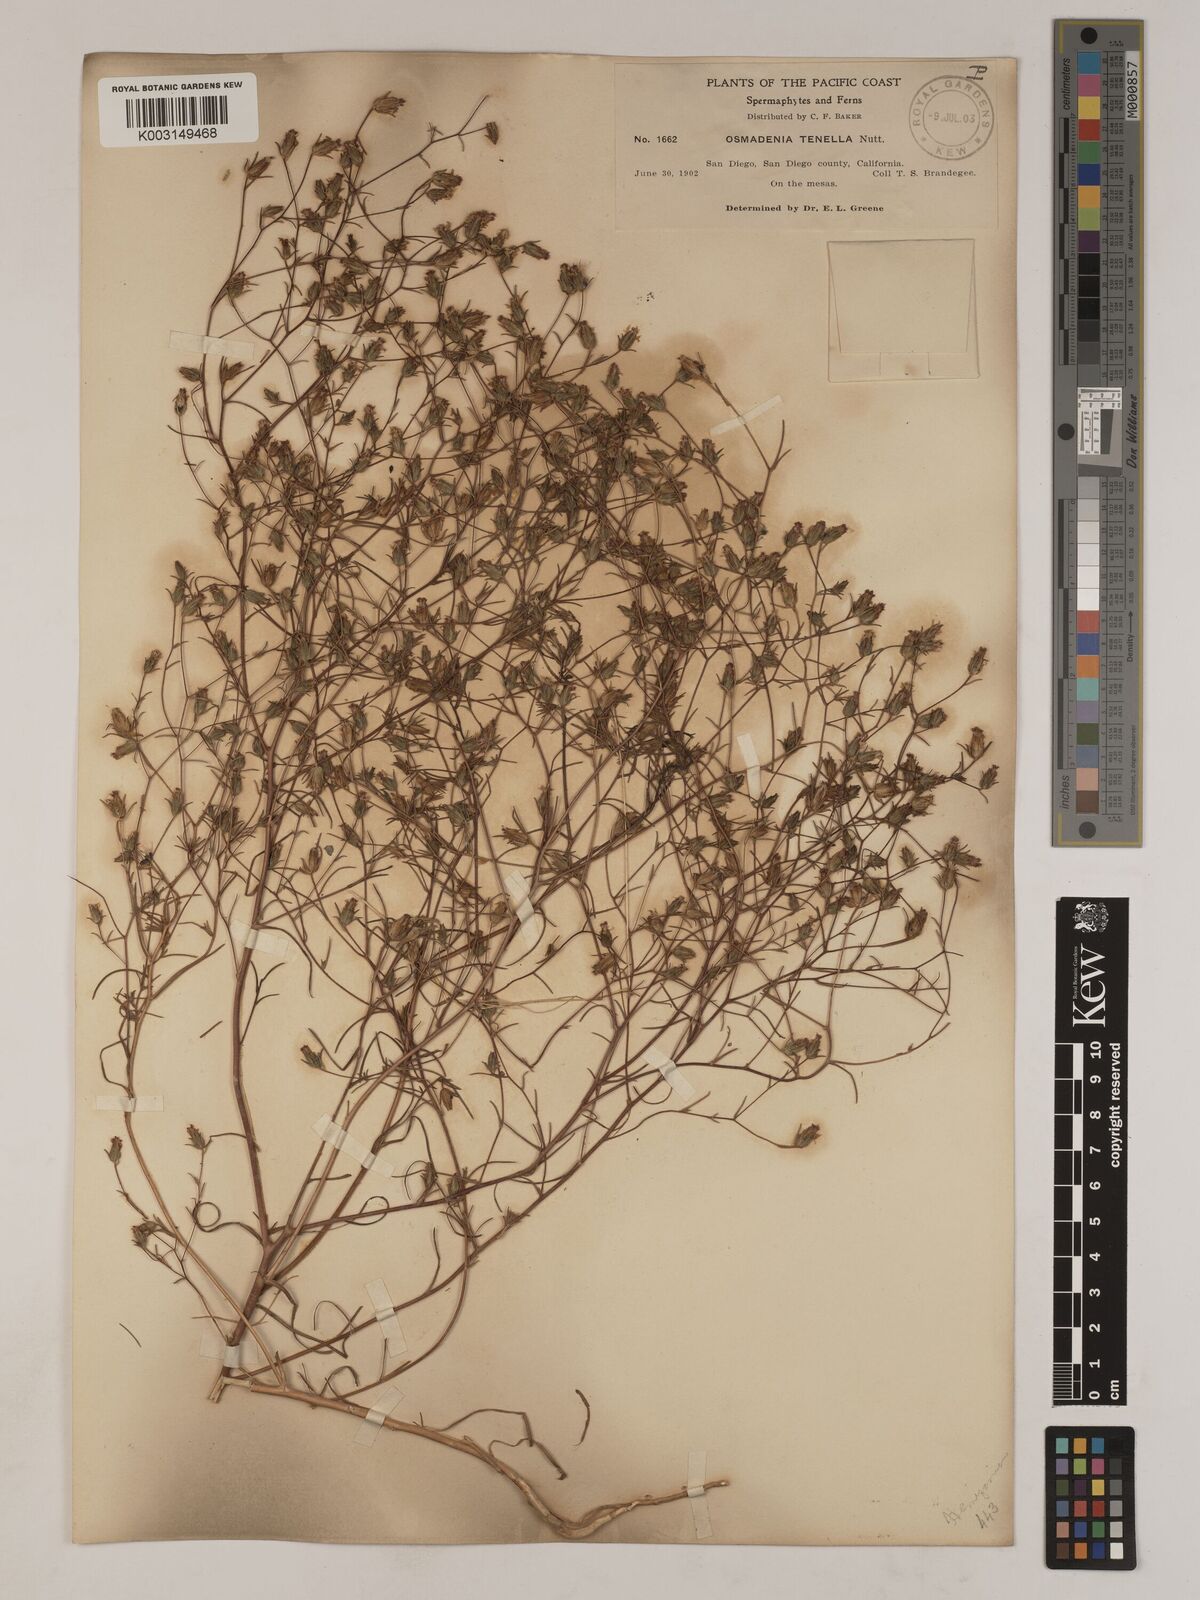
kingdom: Plantae
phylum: Tracheophyta
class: Magnoliopsida
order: Asterales
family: Asteraceae
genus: Osmadenia
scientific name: Osmadenia tenella
